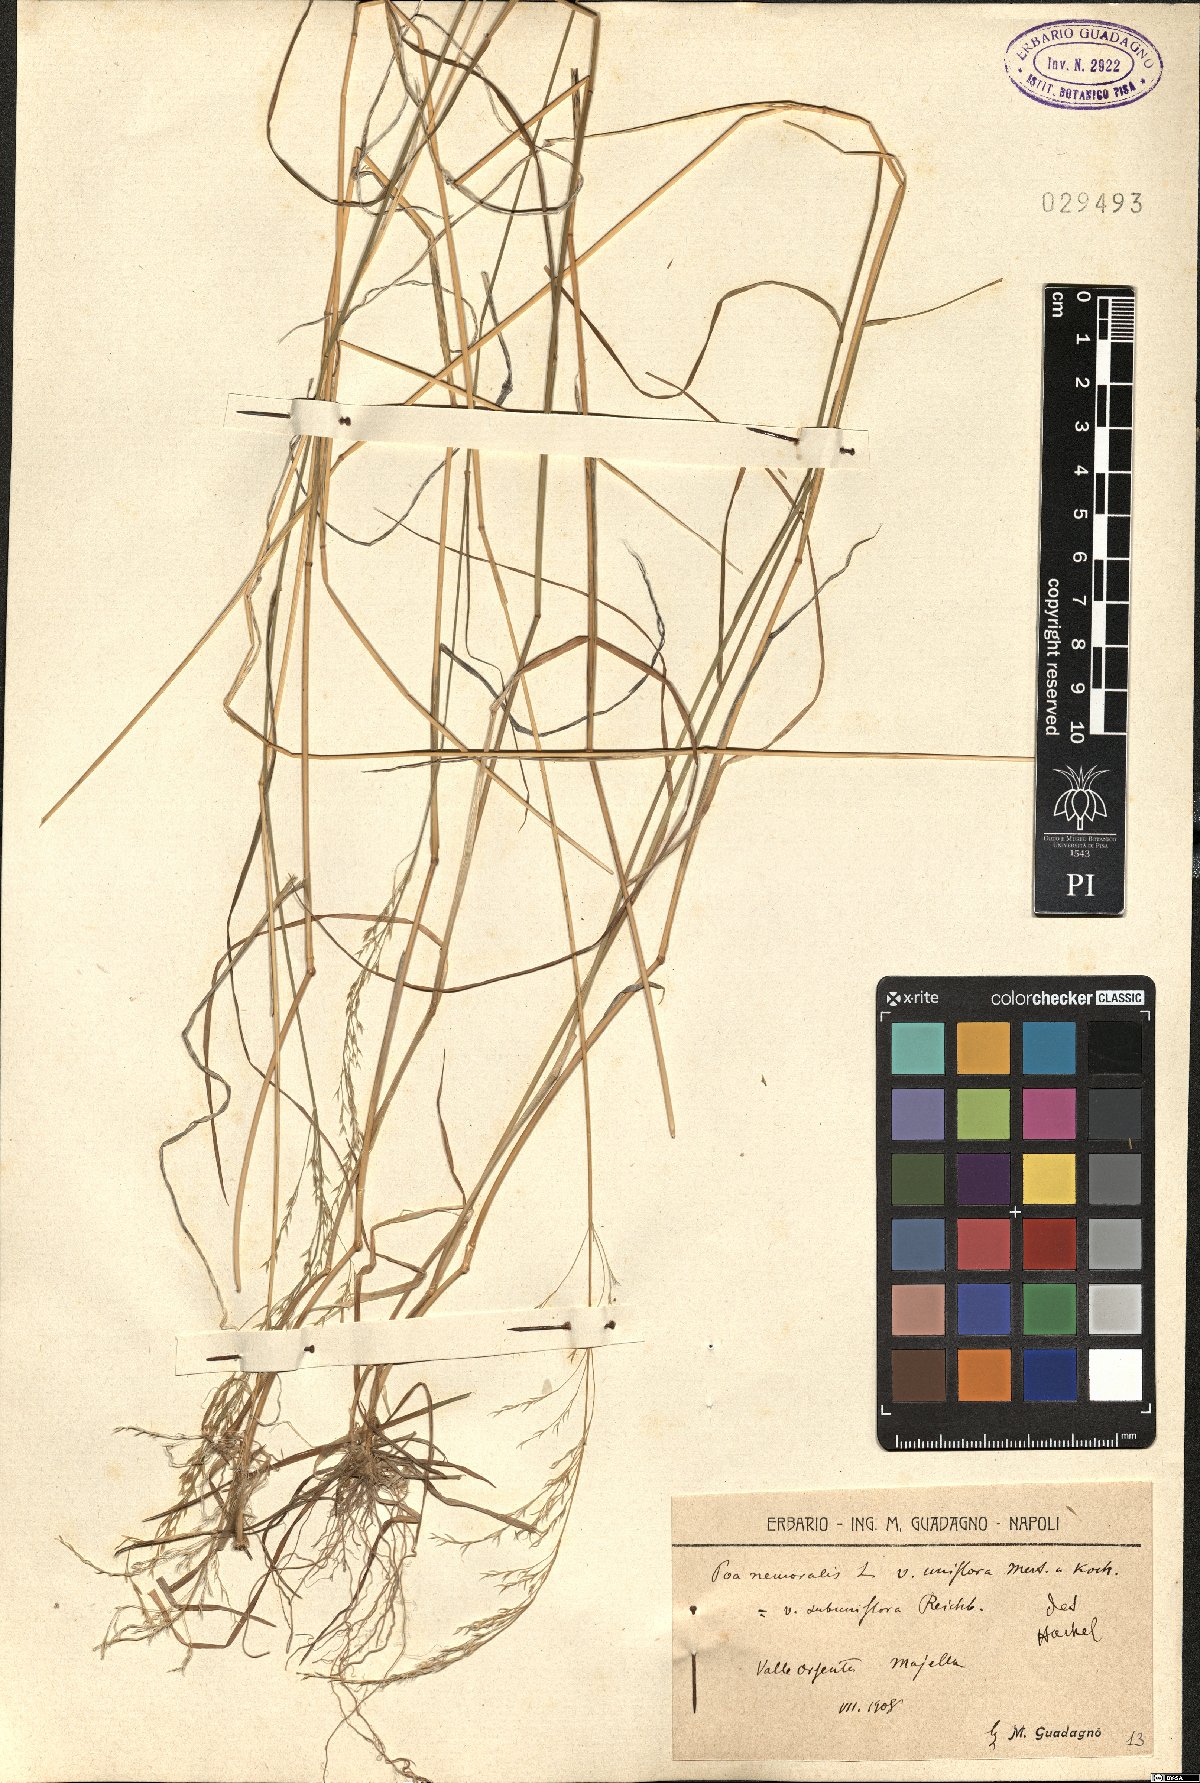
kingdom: Plantae
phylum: Tracheophyta
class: Liliopsida
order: Poales
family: Poaceae
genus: Poa
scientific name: Poa nemoralis
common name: Wood bluegrass
